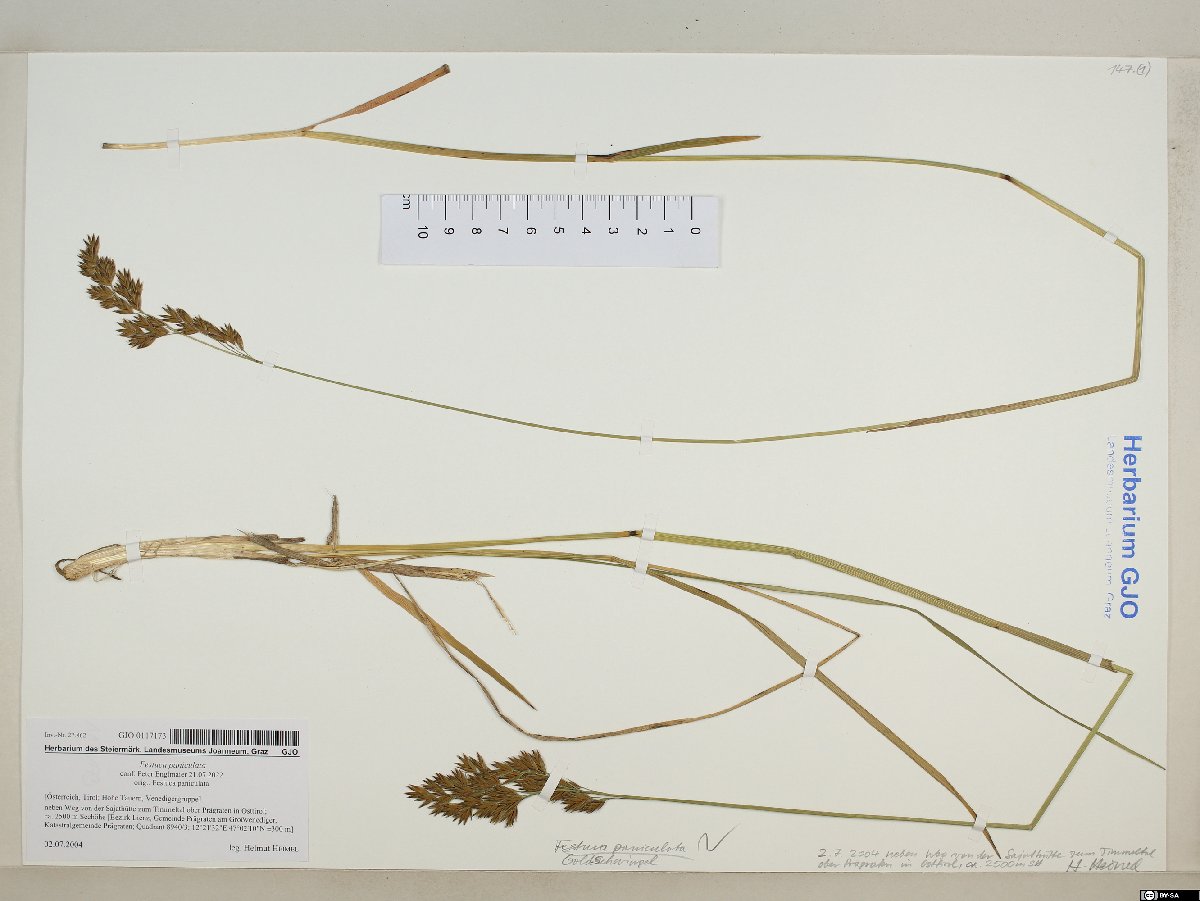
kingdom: Plantae
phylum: Tracheophyta
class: Liliopsida
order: Poales
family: Poaceae
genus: Patzkea
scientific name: Patzkea paniculata
